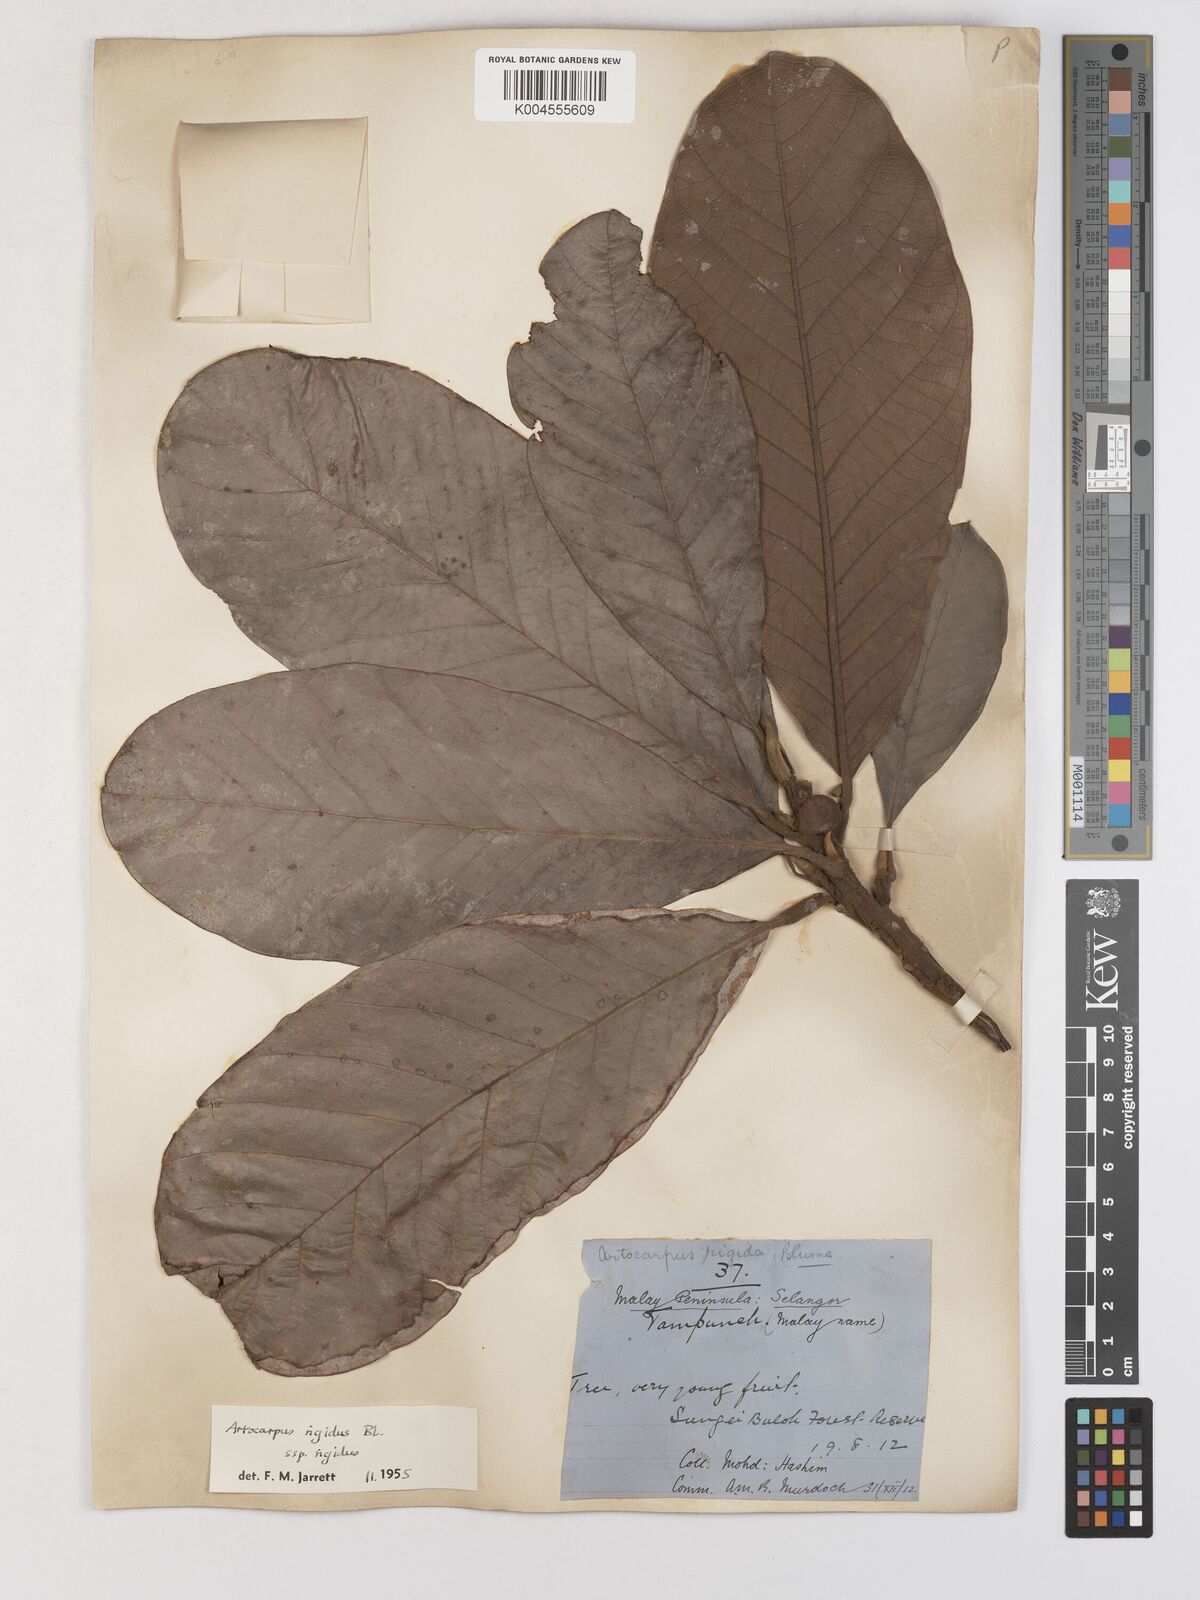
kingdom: Plantae
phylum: Tracheophyta
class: Magnoliopsida
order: Rosales
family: Moraceae
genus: Artocarpus
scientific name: Artocarpus
